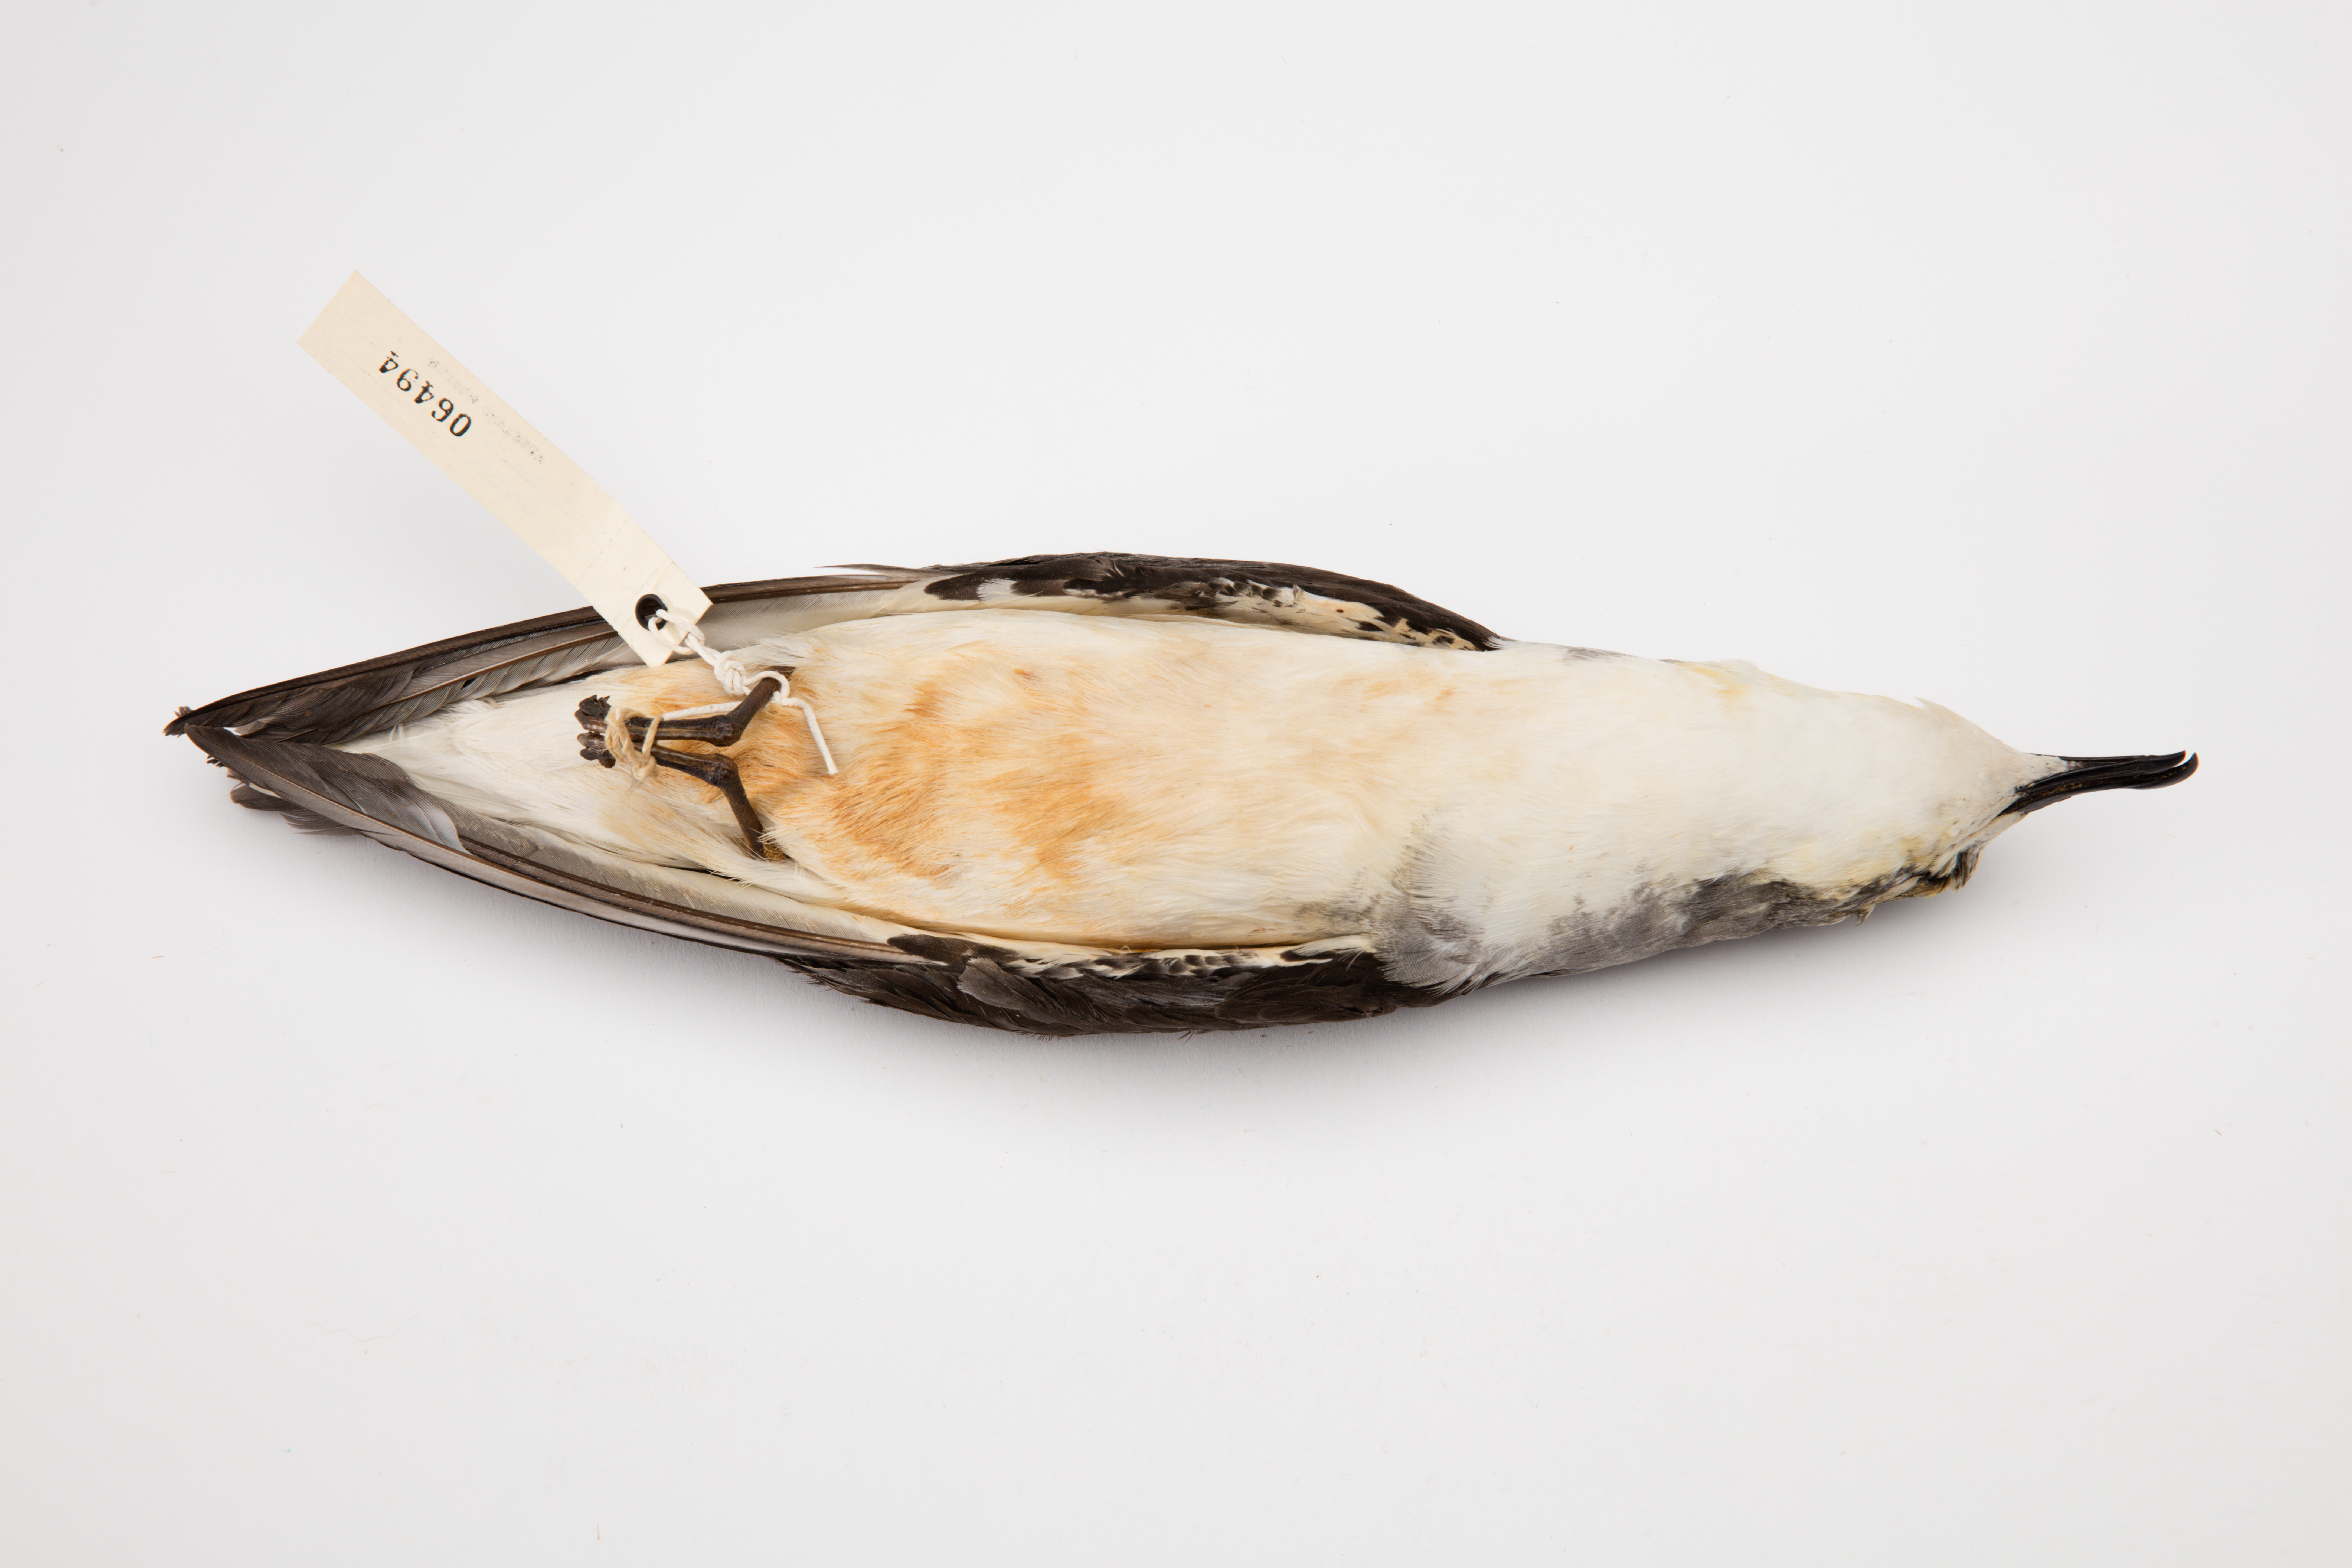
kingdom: Animalia
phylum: Chordata
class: Aves
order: Procellariiformes
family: Procellariidae
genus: Pterodroma
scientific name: Pterodroma cookii
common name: Cook's petrel
